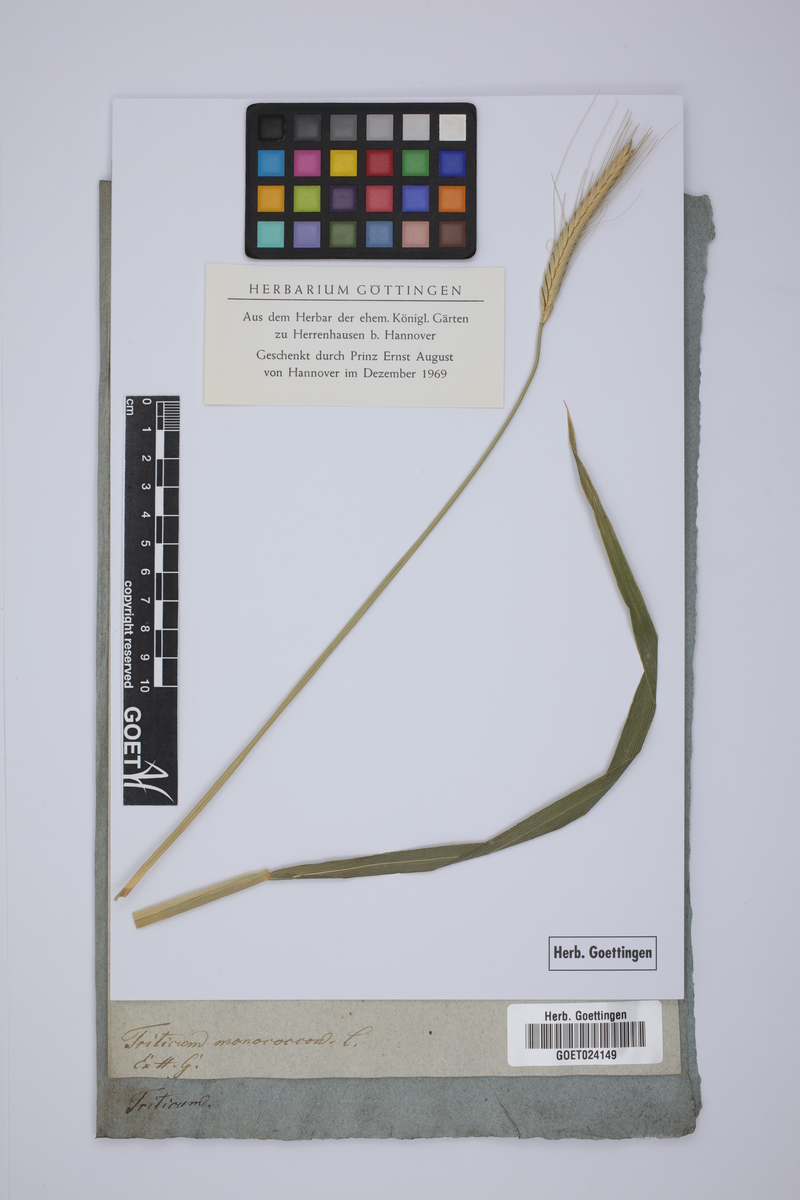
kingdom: Plantae
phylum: Tracheophyta
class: Liliopsida
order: Poales
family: Poaceae
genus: Triticum
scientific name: Triticum monococcum
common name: Einkorn
